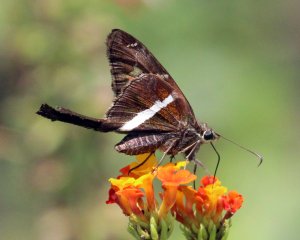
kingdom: Animalia
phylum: Arthropoda
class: Insecta
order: Lepidoptera
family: Hesperiidae
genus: Chioides
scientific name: Chioides catillus
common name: White-striped Longtail
